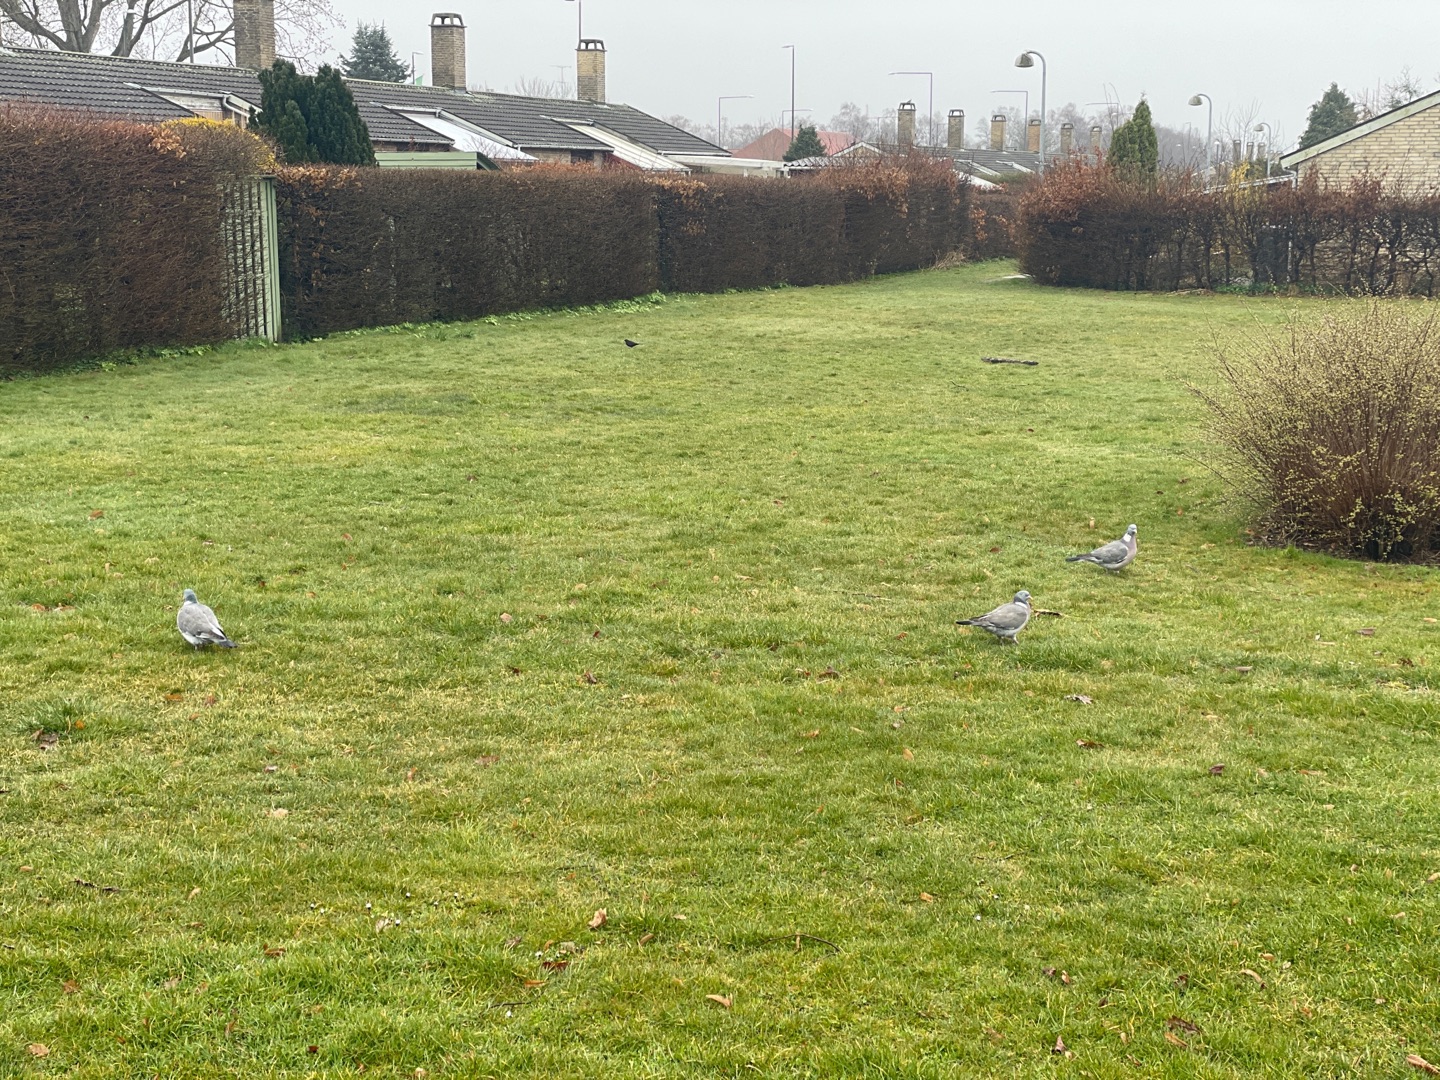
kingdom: Animalia
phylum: Chordata
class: Aves
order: Columbiformes
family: Columbidae
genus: Columba
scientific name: Columba palumbus
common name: Ringdue
